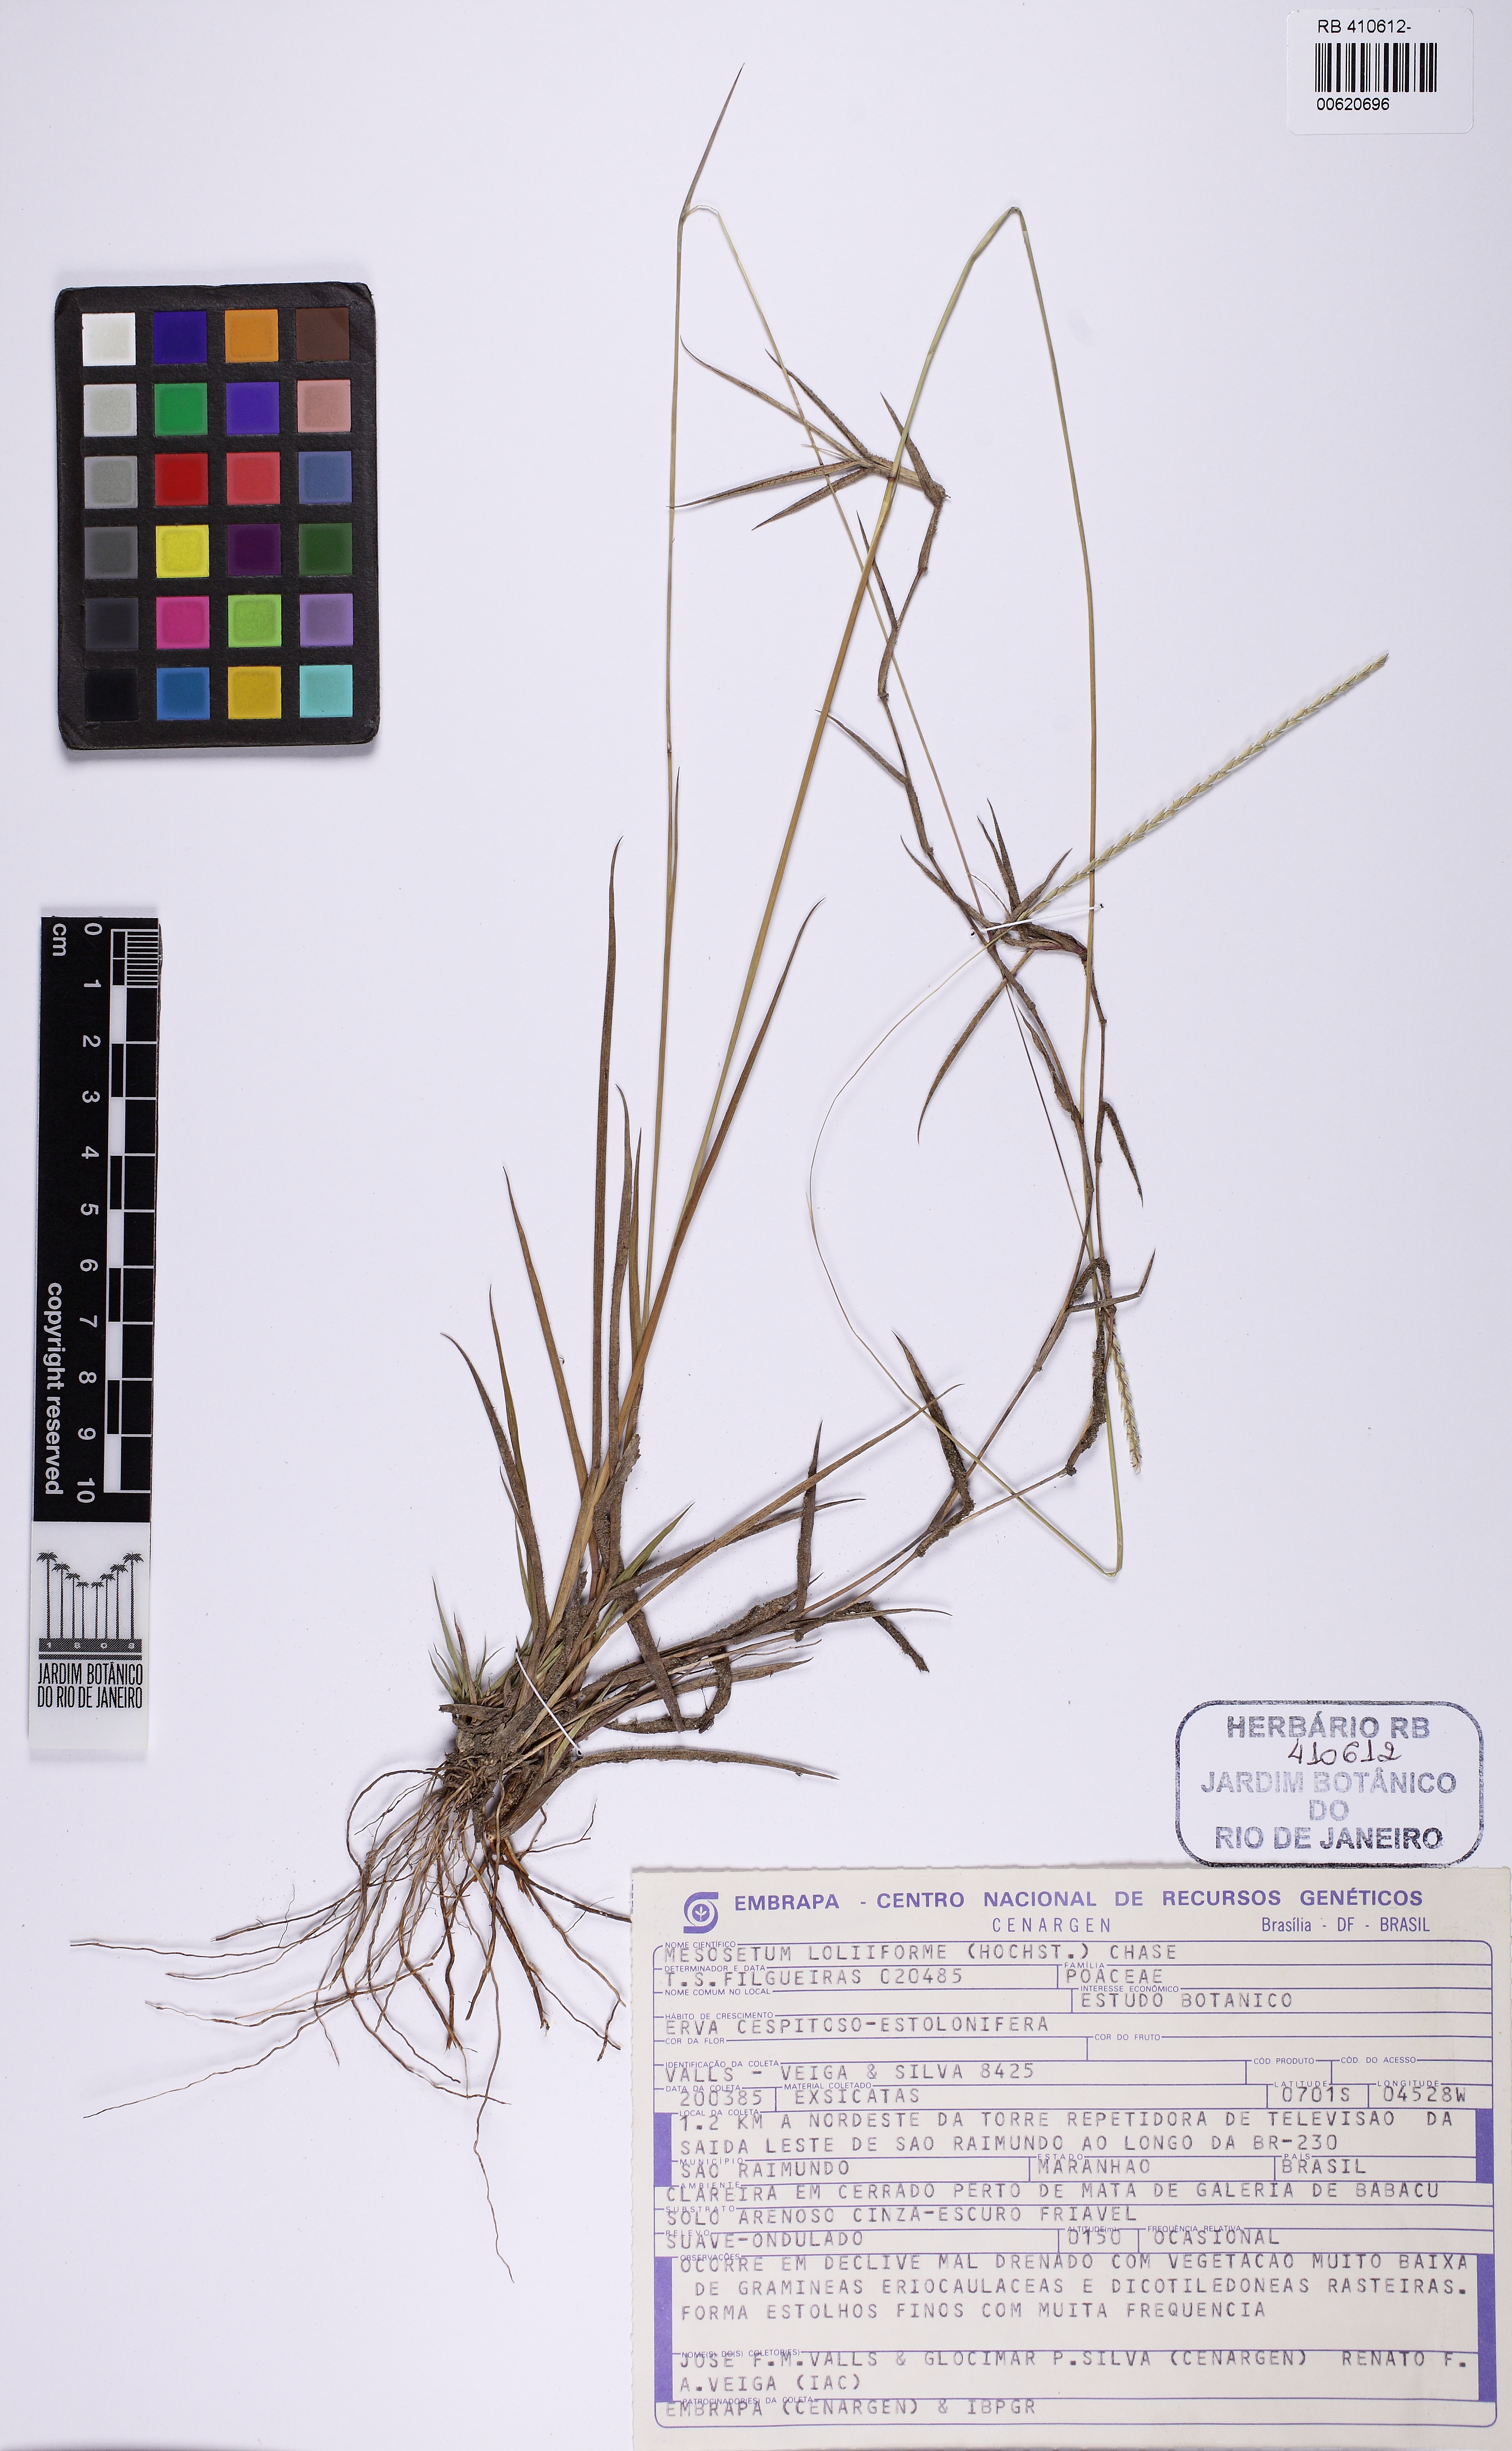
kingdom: Plantae
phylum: Tracheophyta
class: Liliopsida
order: Poales
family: Poaceae
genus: Mesosetum
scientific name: Mesosetum loliiforme
